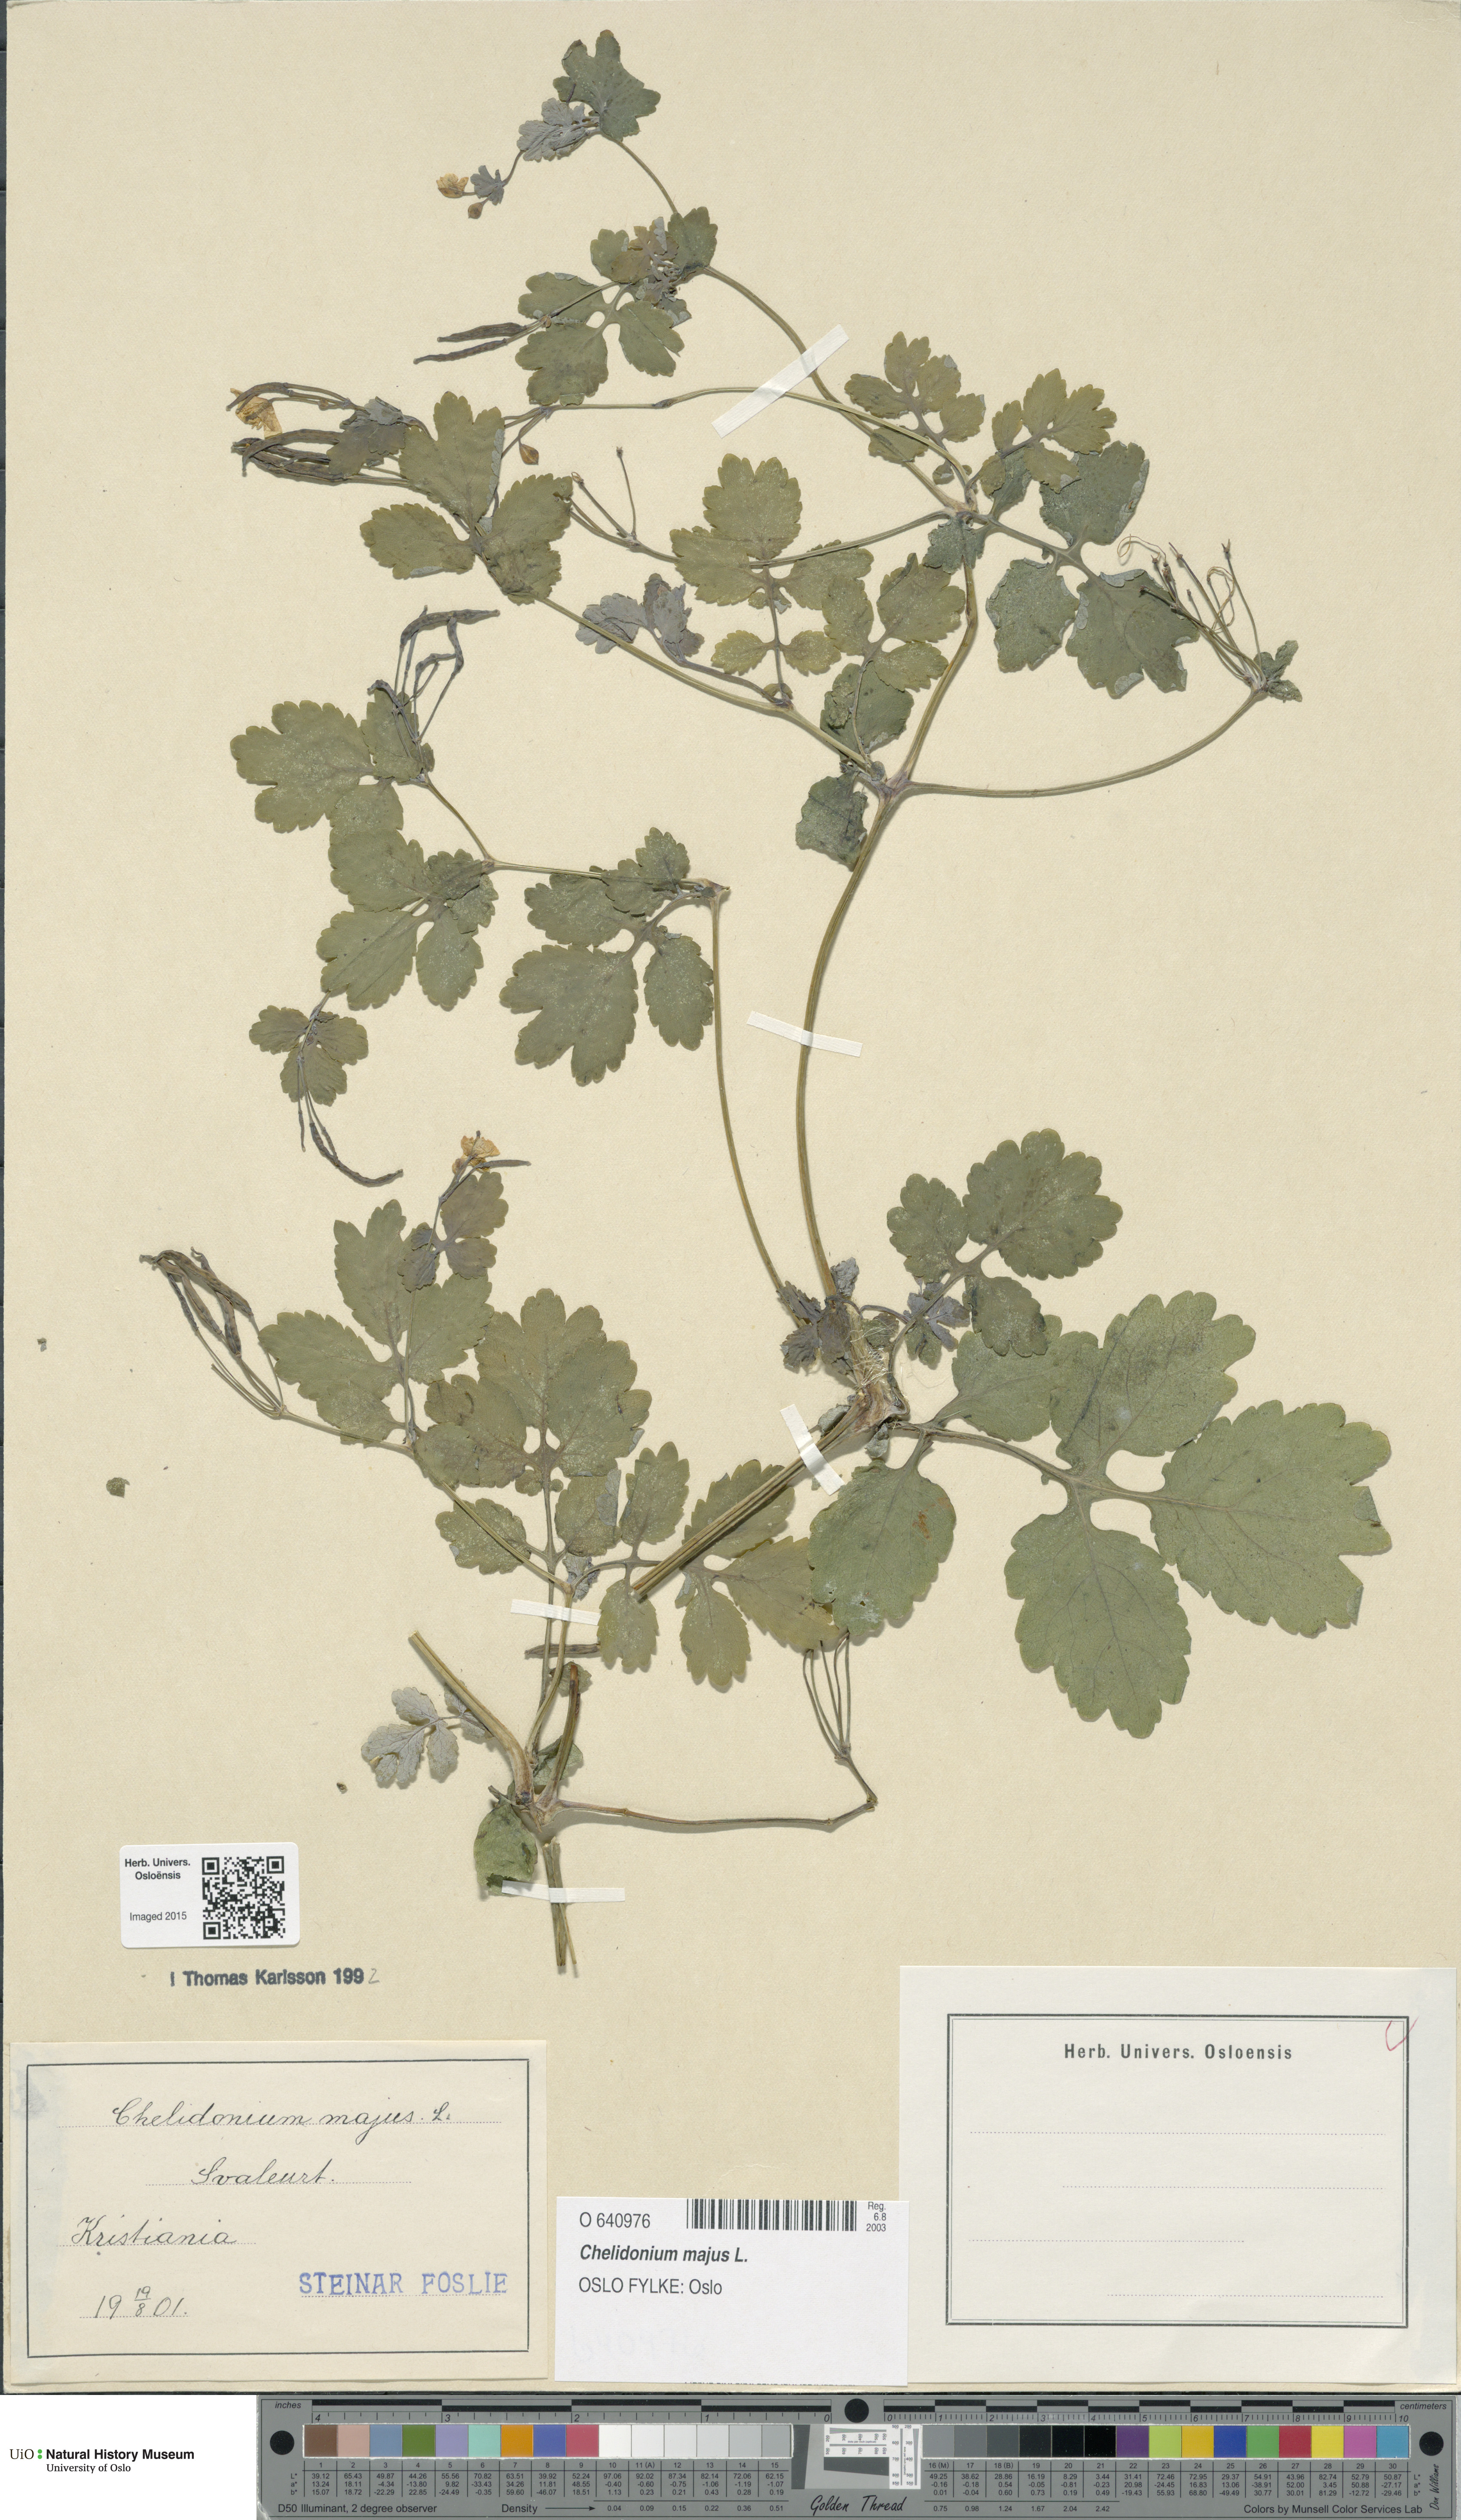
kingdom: Plantae
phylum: Tracheophyta
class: Magnoliopsida
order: Ranunculales
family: Papaveraceae
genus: Chelidonium
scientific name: Chelidonium majus
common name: Greater celandine
